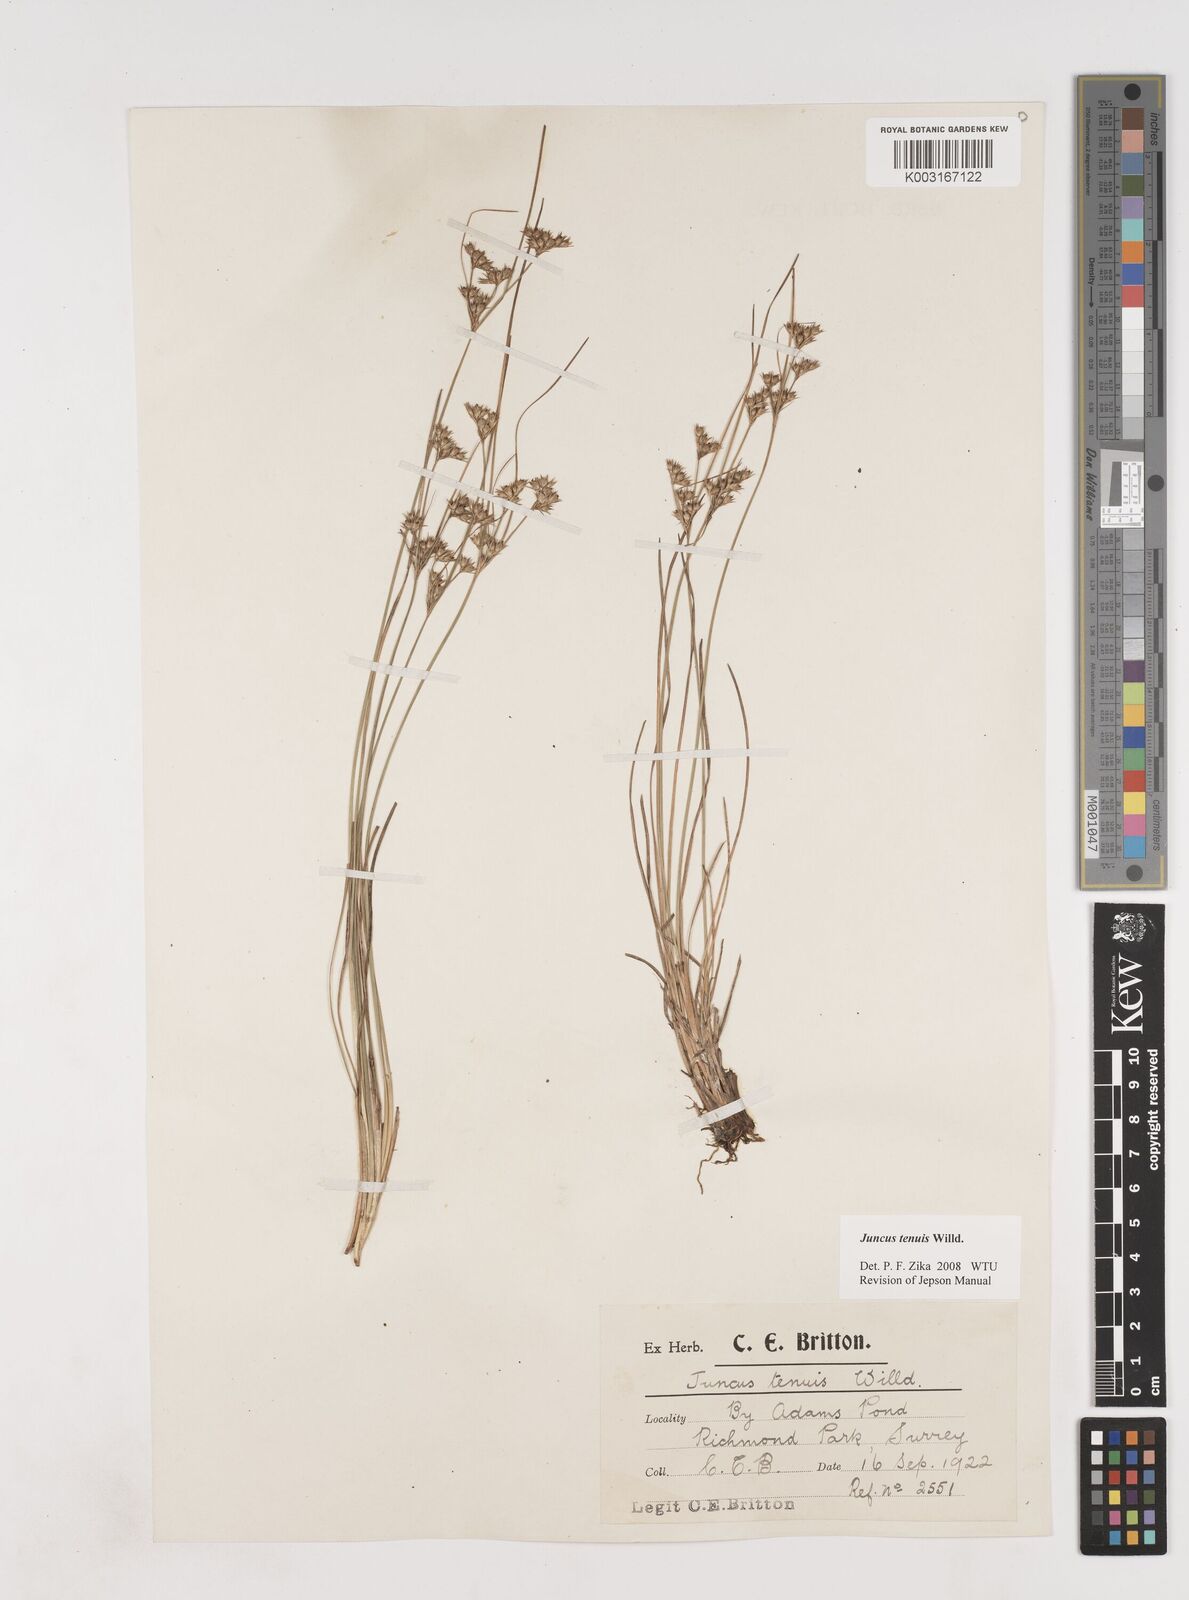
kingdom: Plantae
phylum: Tracheophyta
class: Liliopsida
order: Poales
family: Juncaceae
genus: Juncus
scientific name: Juncus tenuis
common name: Slender rush
